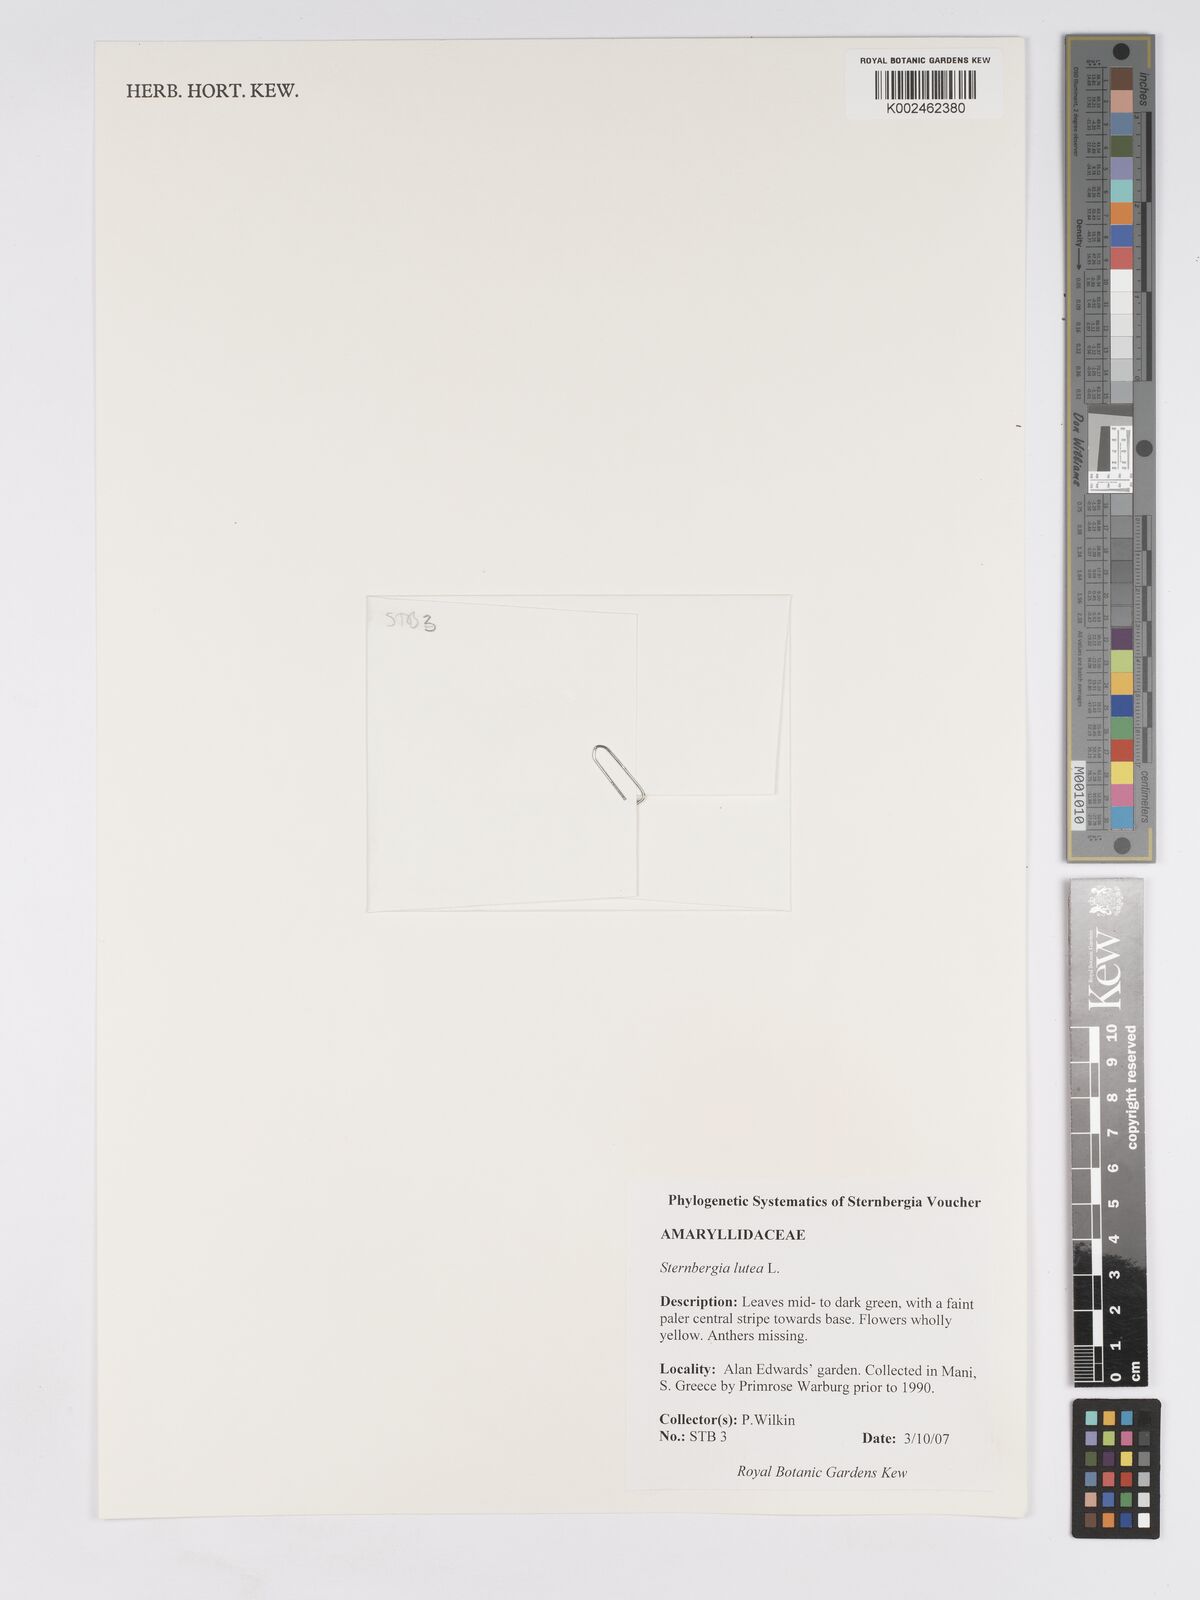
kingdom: Plantae
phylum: Tracheophyta
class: Liliopsida
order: Asparagales
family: Amaryllidaceae
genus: Sternbergia
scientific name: Sternbergia lutea
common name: Winter daffodil
